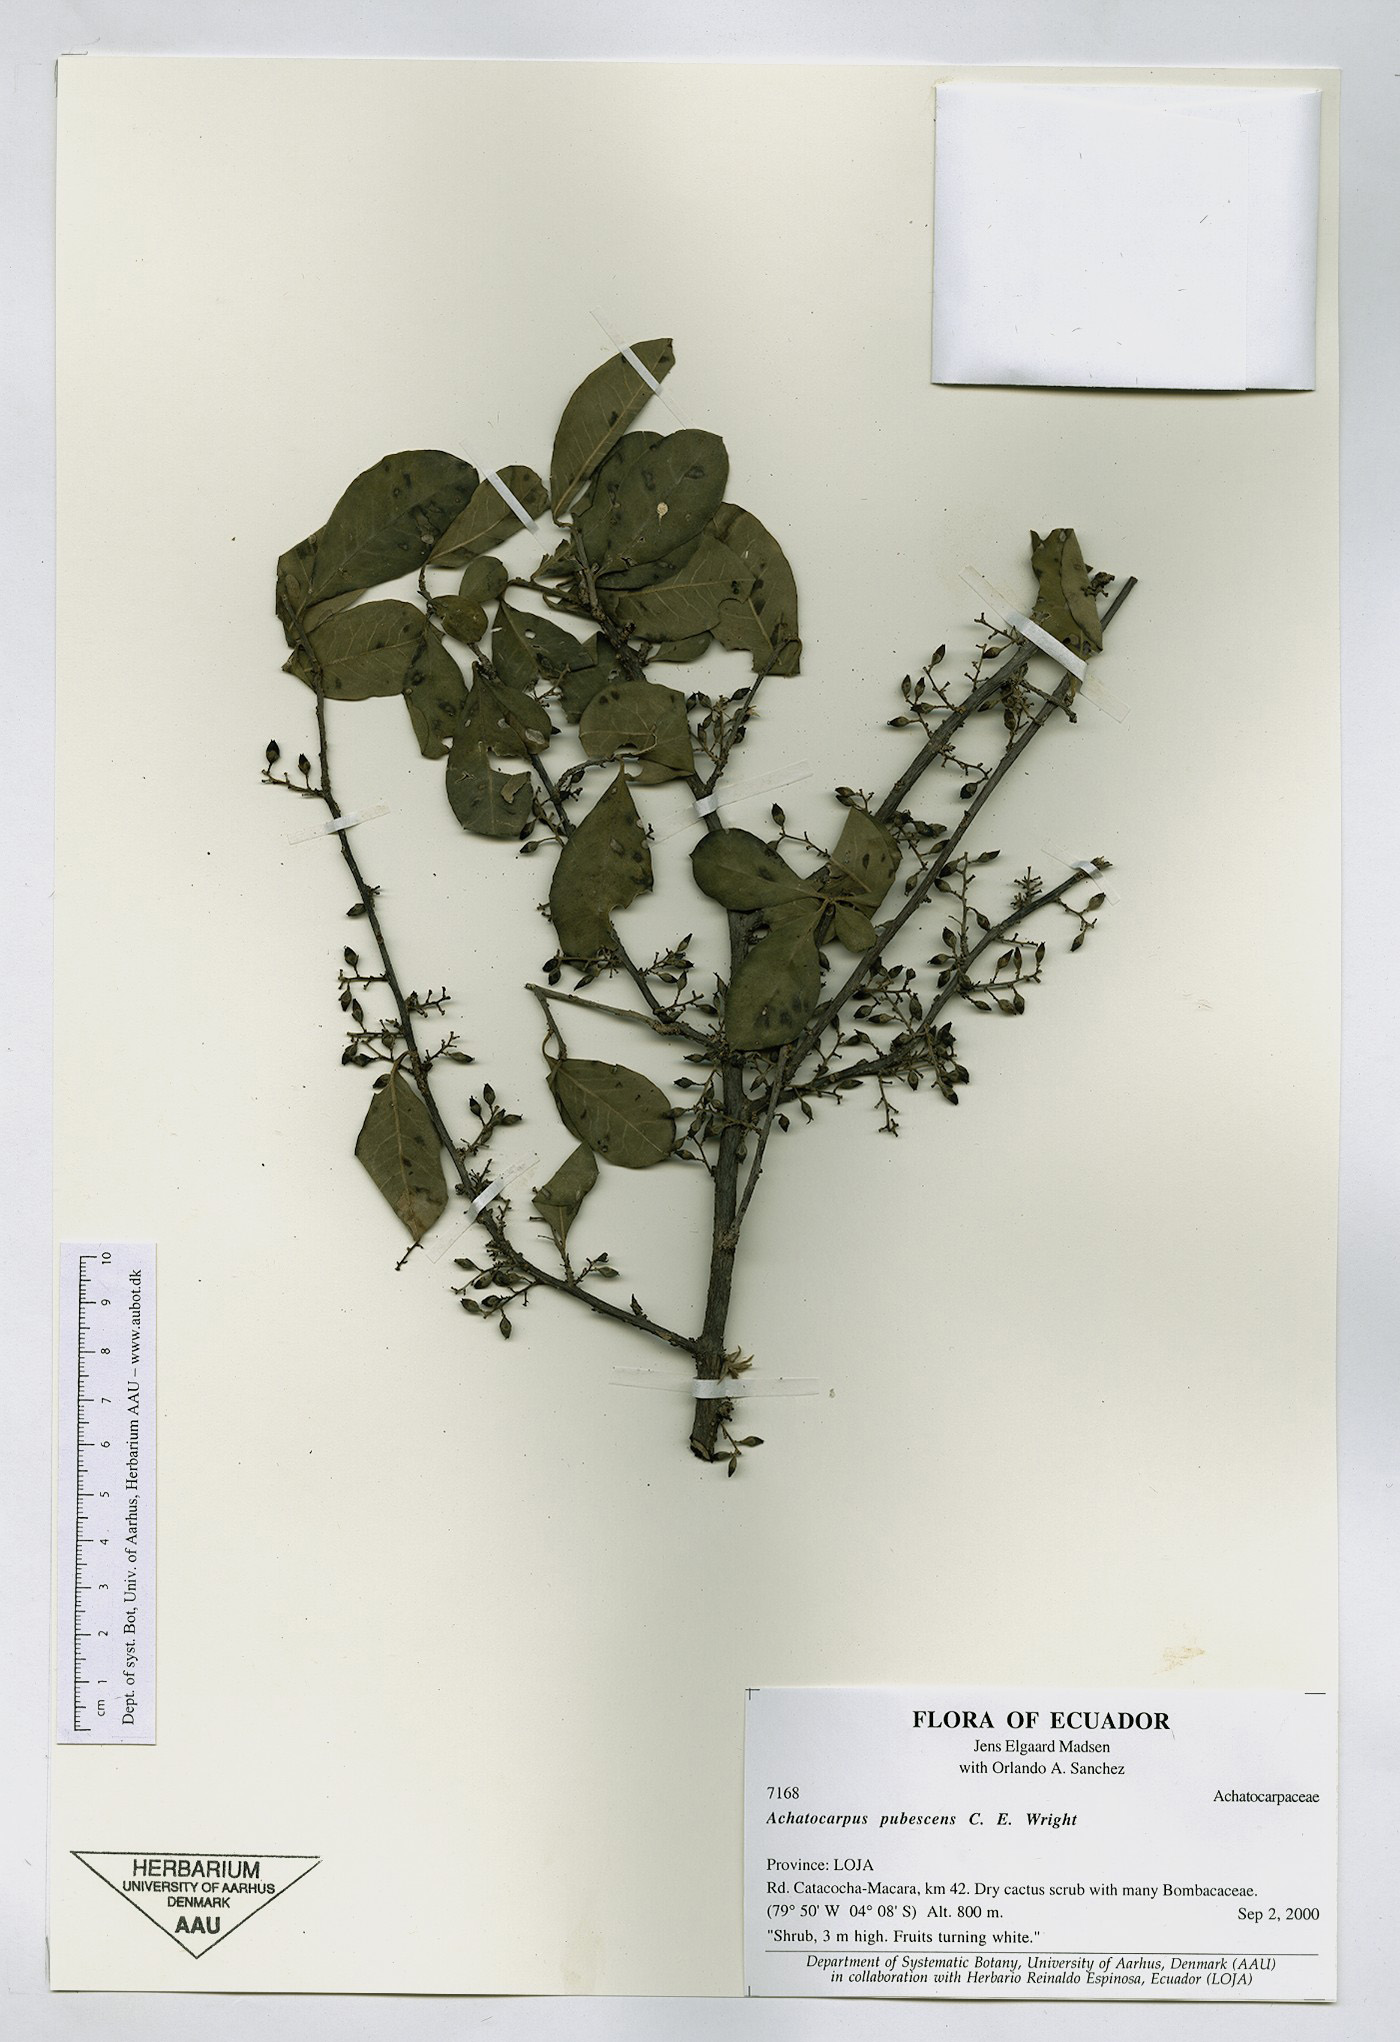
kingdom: Plantae
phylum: Tracheophyta
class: Magnoliopsida
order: Caryophyllales
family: Achatocarpaceae
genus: Achatocarpus
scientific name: Achatocarpus pubescens
